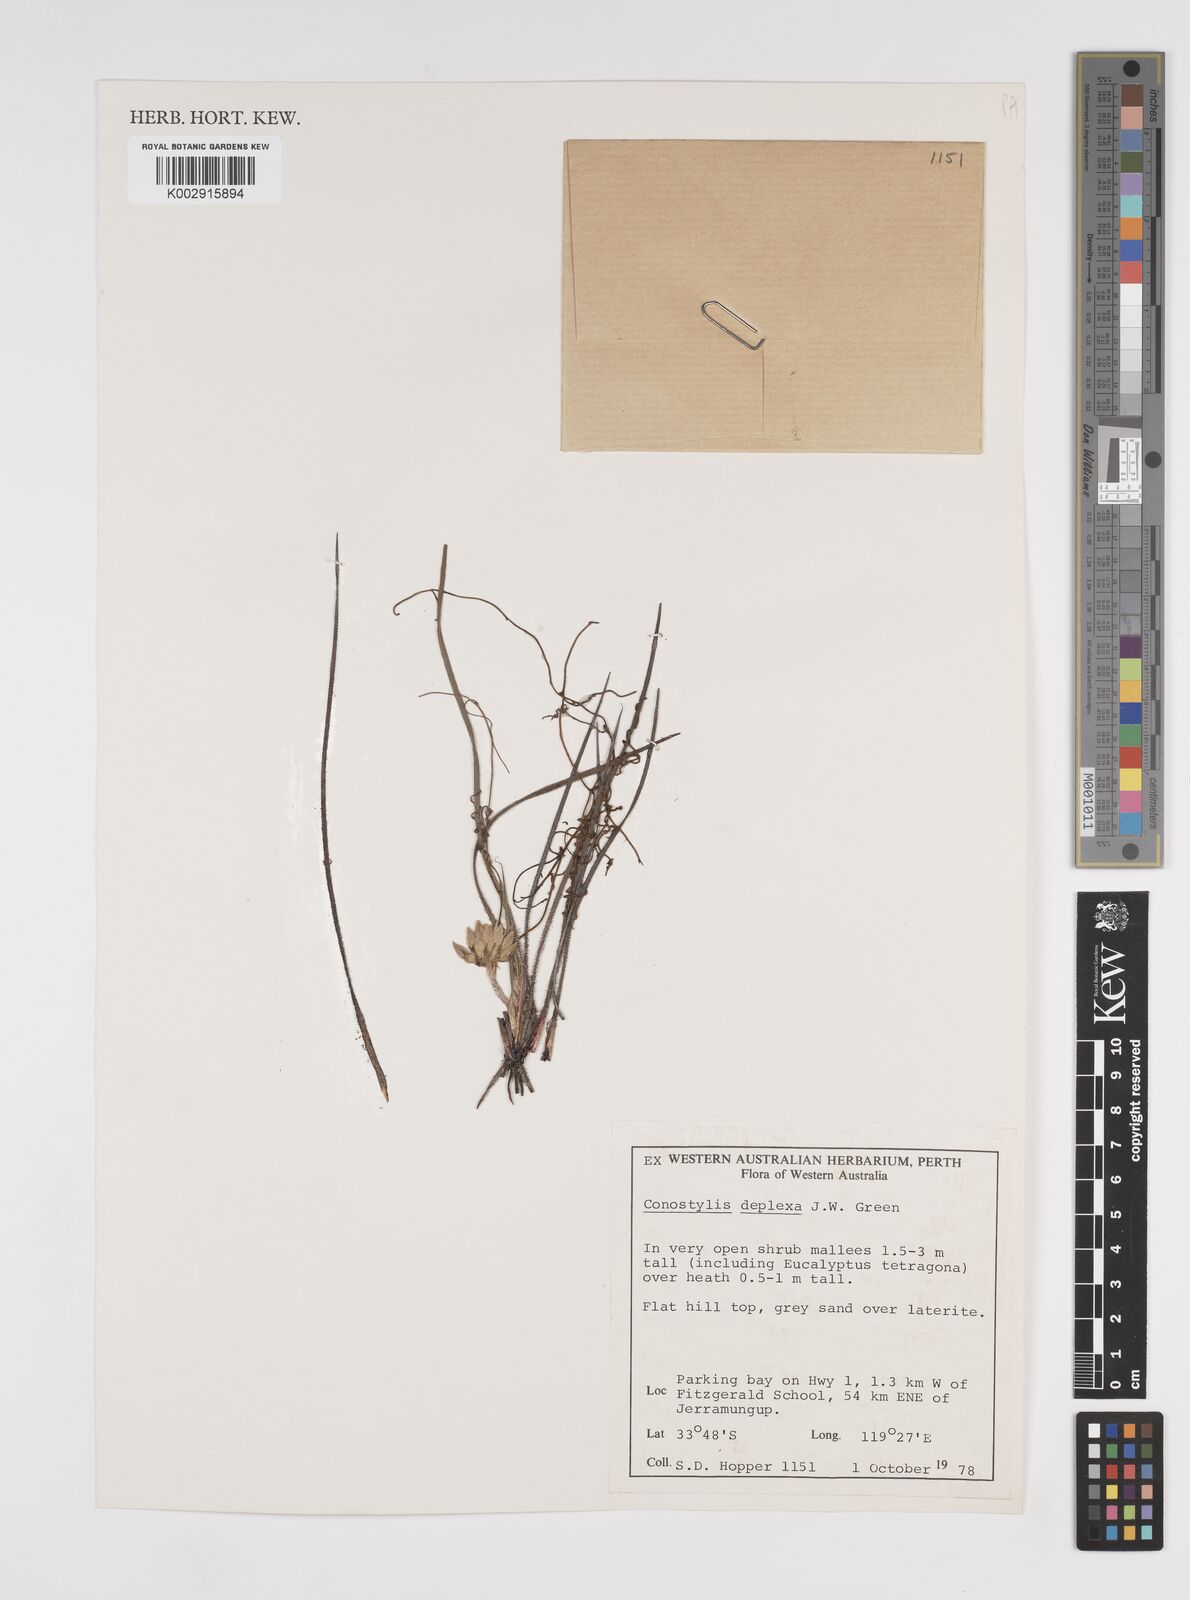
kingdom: Plantae
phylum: Tracheophyta
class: Liliopsida
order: Commelinales
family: Haemodoraceae
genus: Conostylis
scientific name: Conostylis deplexa
